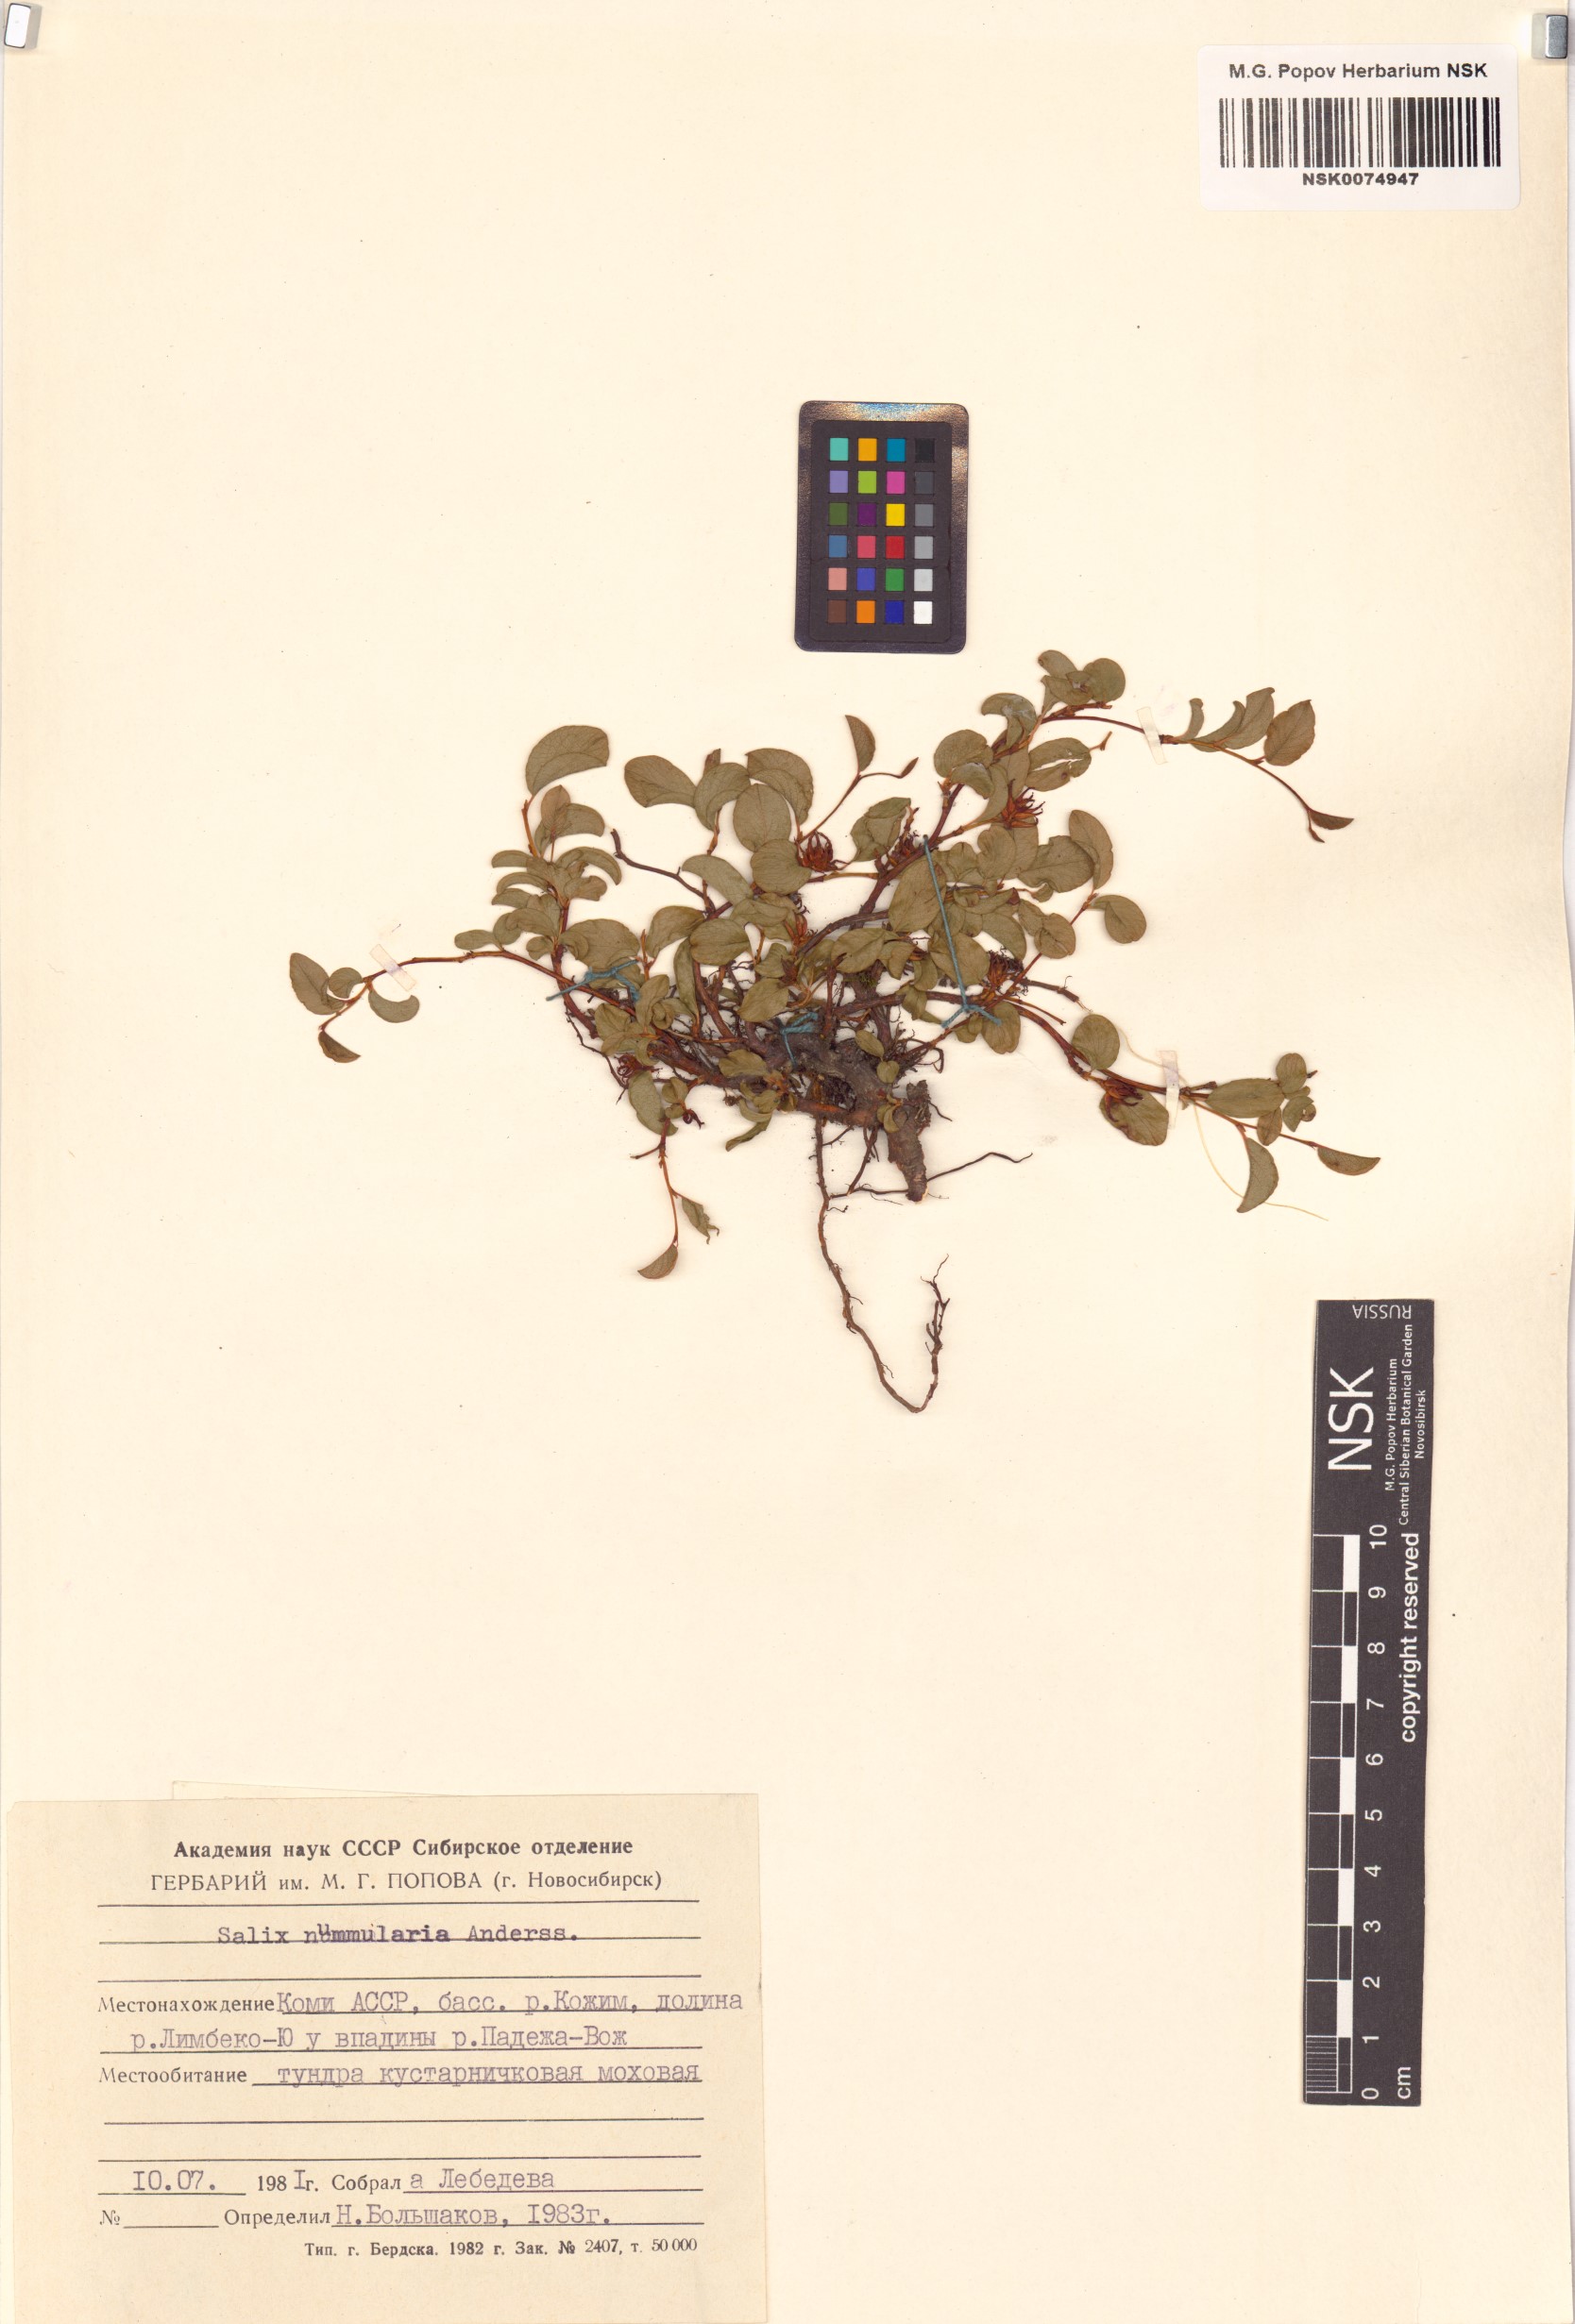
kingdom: Plantae
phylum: Tracheophyta
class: Magnoliopsida
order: Malpighiales
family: Salicaceae
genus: Salix
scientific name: Salix nummularia
